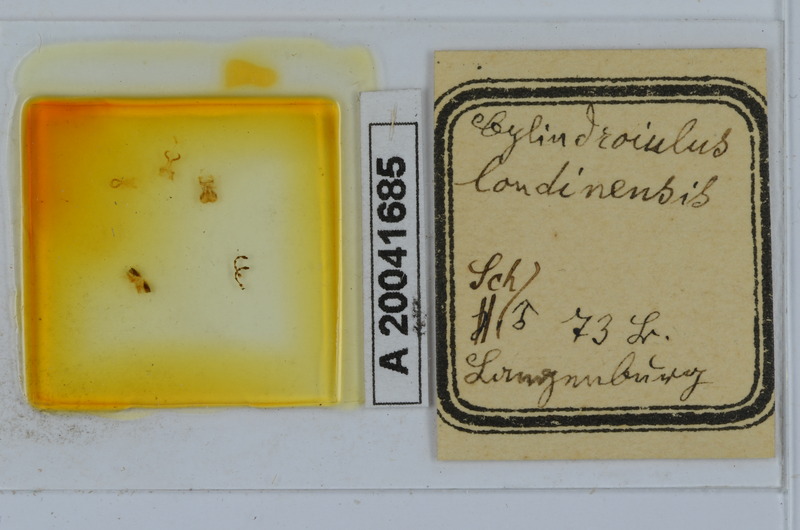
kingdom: Animalia
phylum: Arthropoda
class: Diplopoda
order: Julida
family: Julidae
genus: Cylindroiulus
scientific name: Cylindroiulus londinensis
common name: Black millipede
